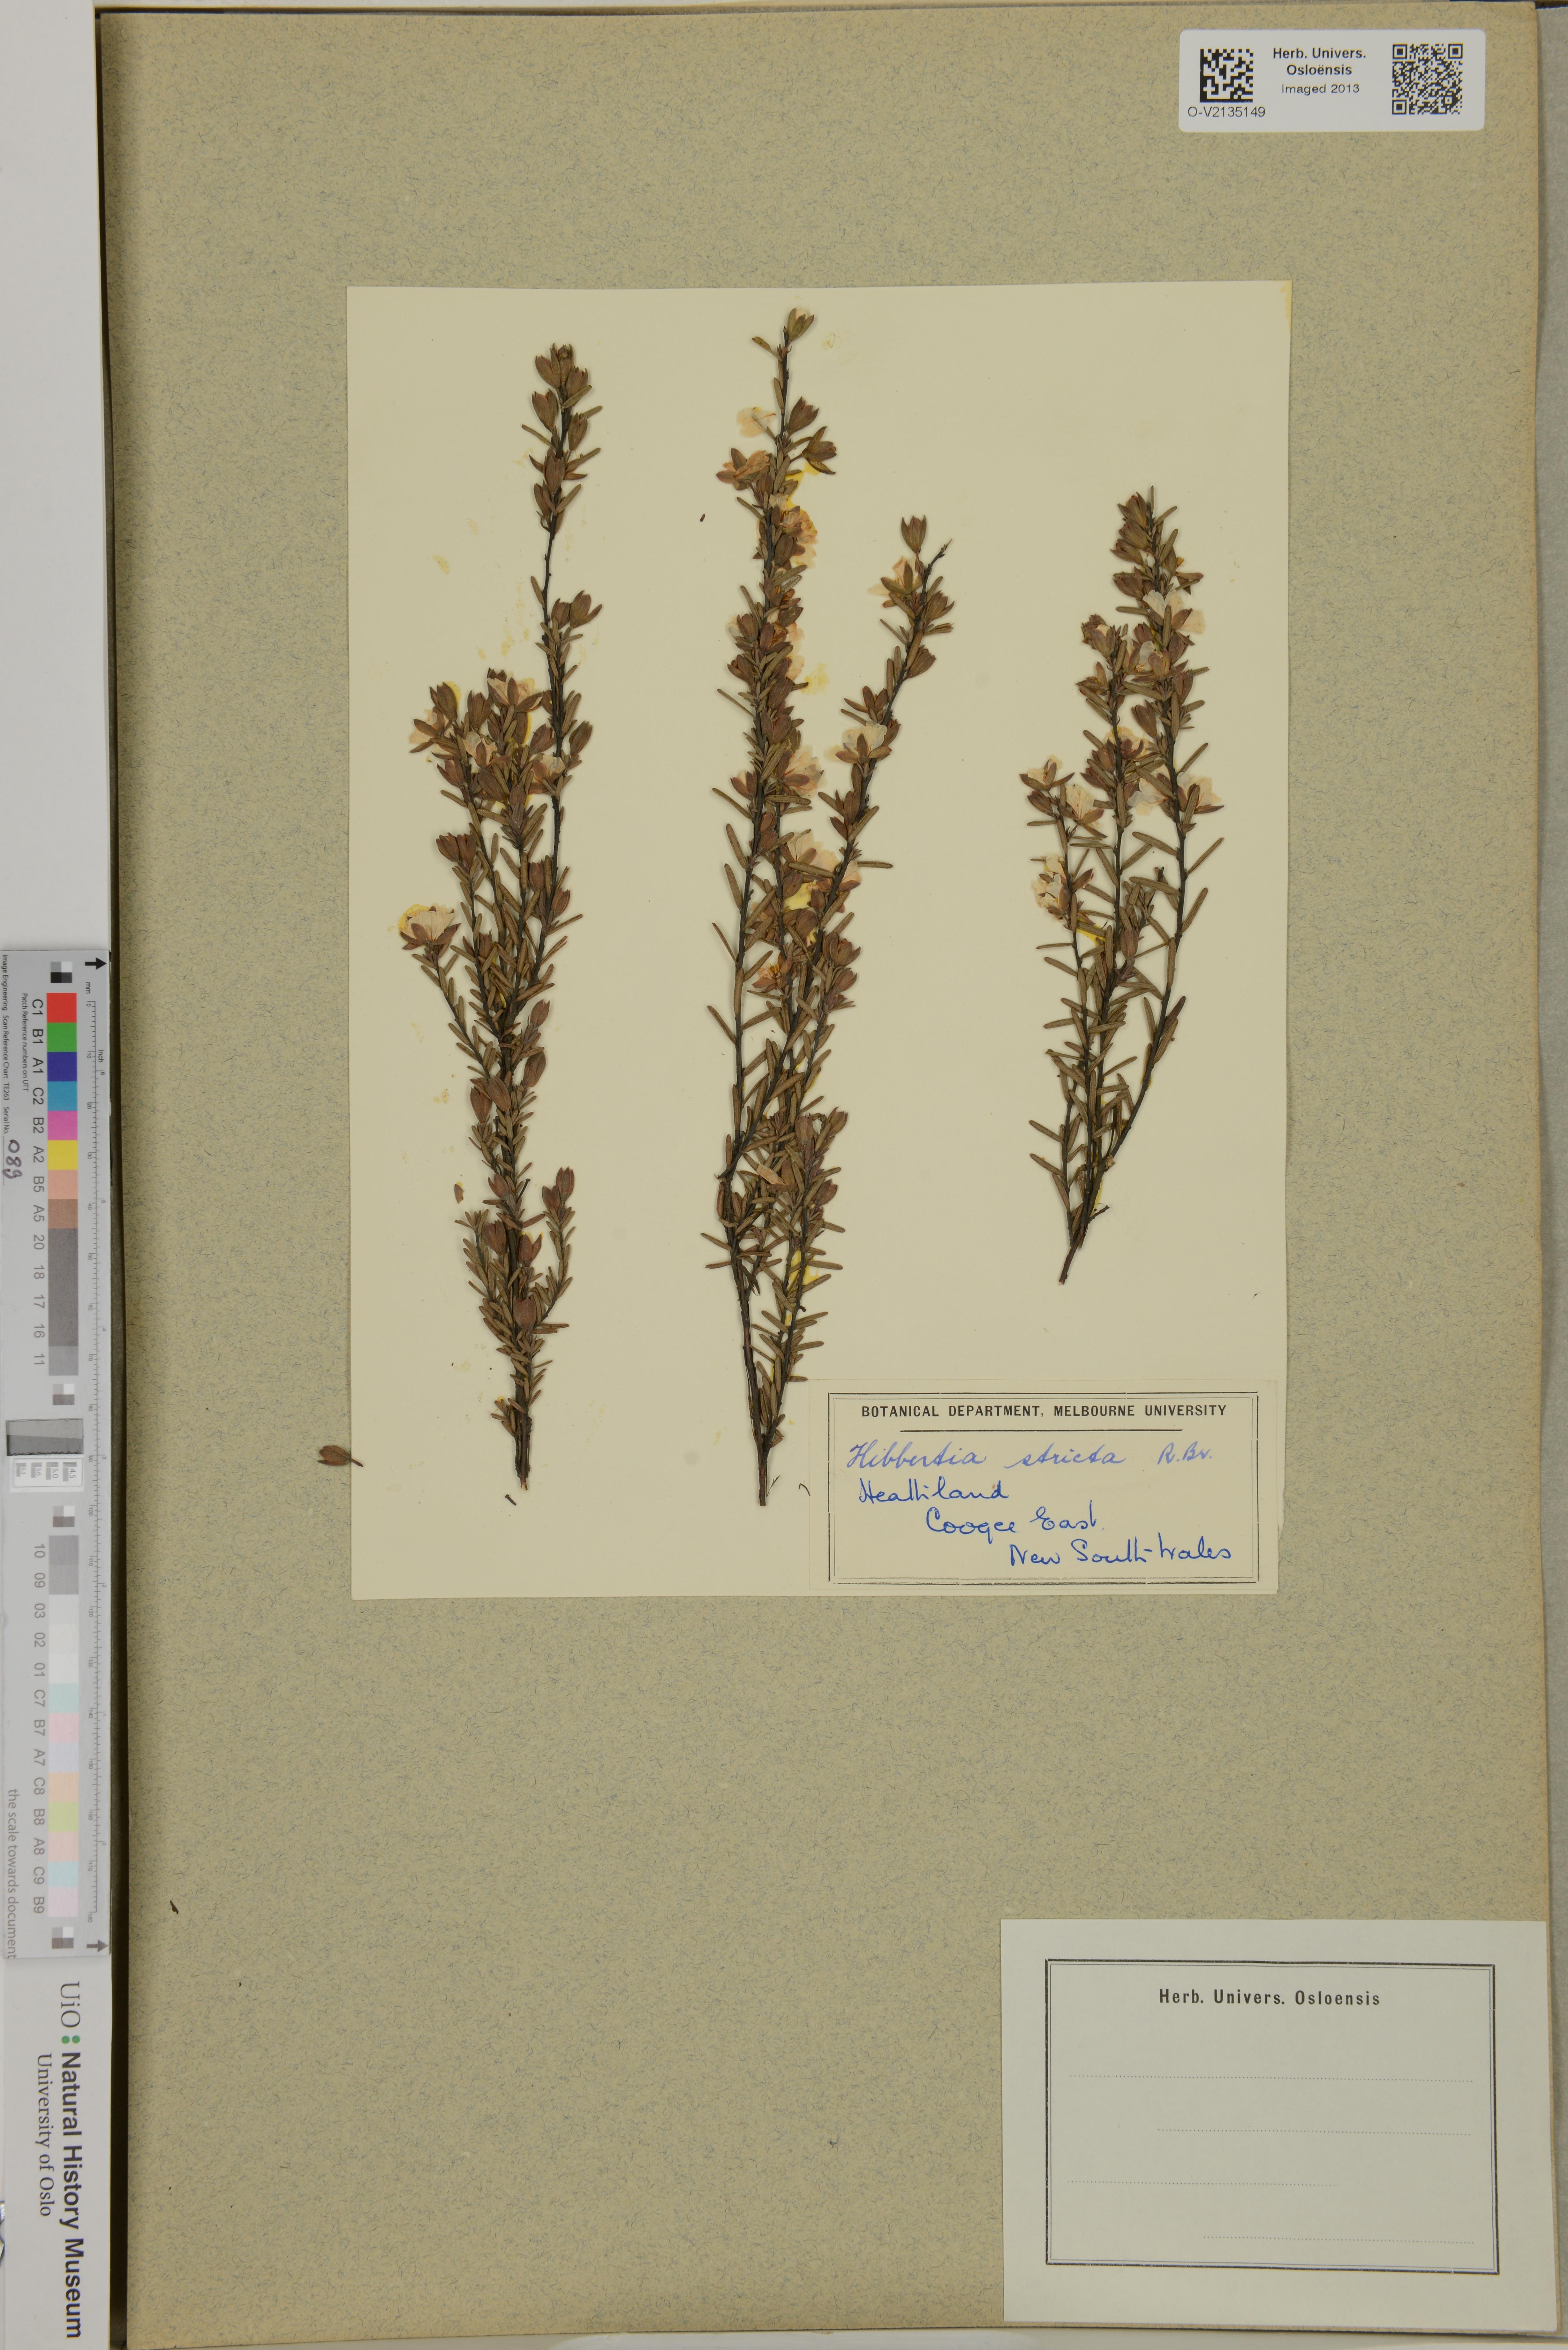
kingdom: Plantae
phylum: Tracheophyta
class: Magnoliopsida
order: Dilleniales
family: Dilleniaceae
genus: Hibbertia
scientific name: Hibbertia stricta
